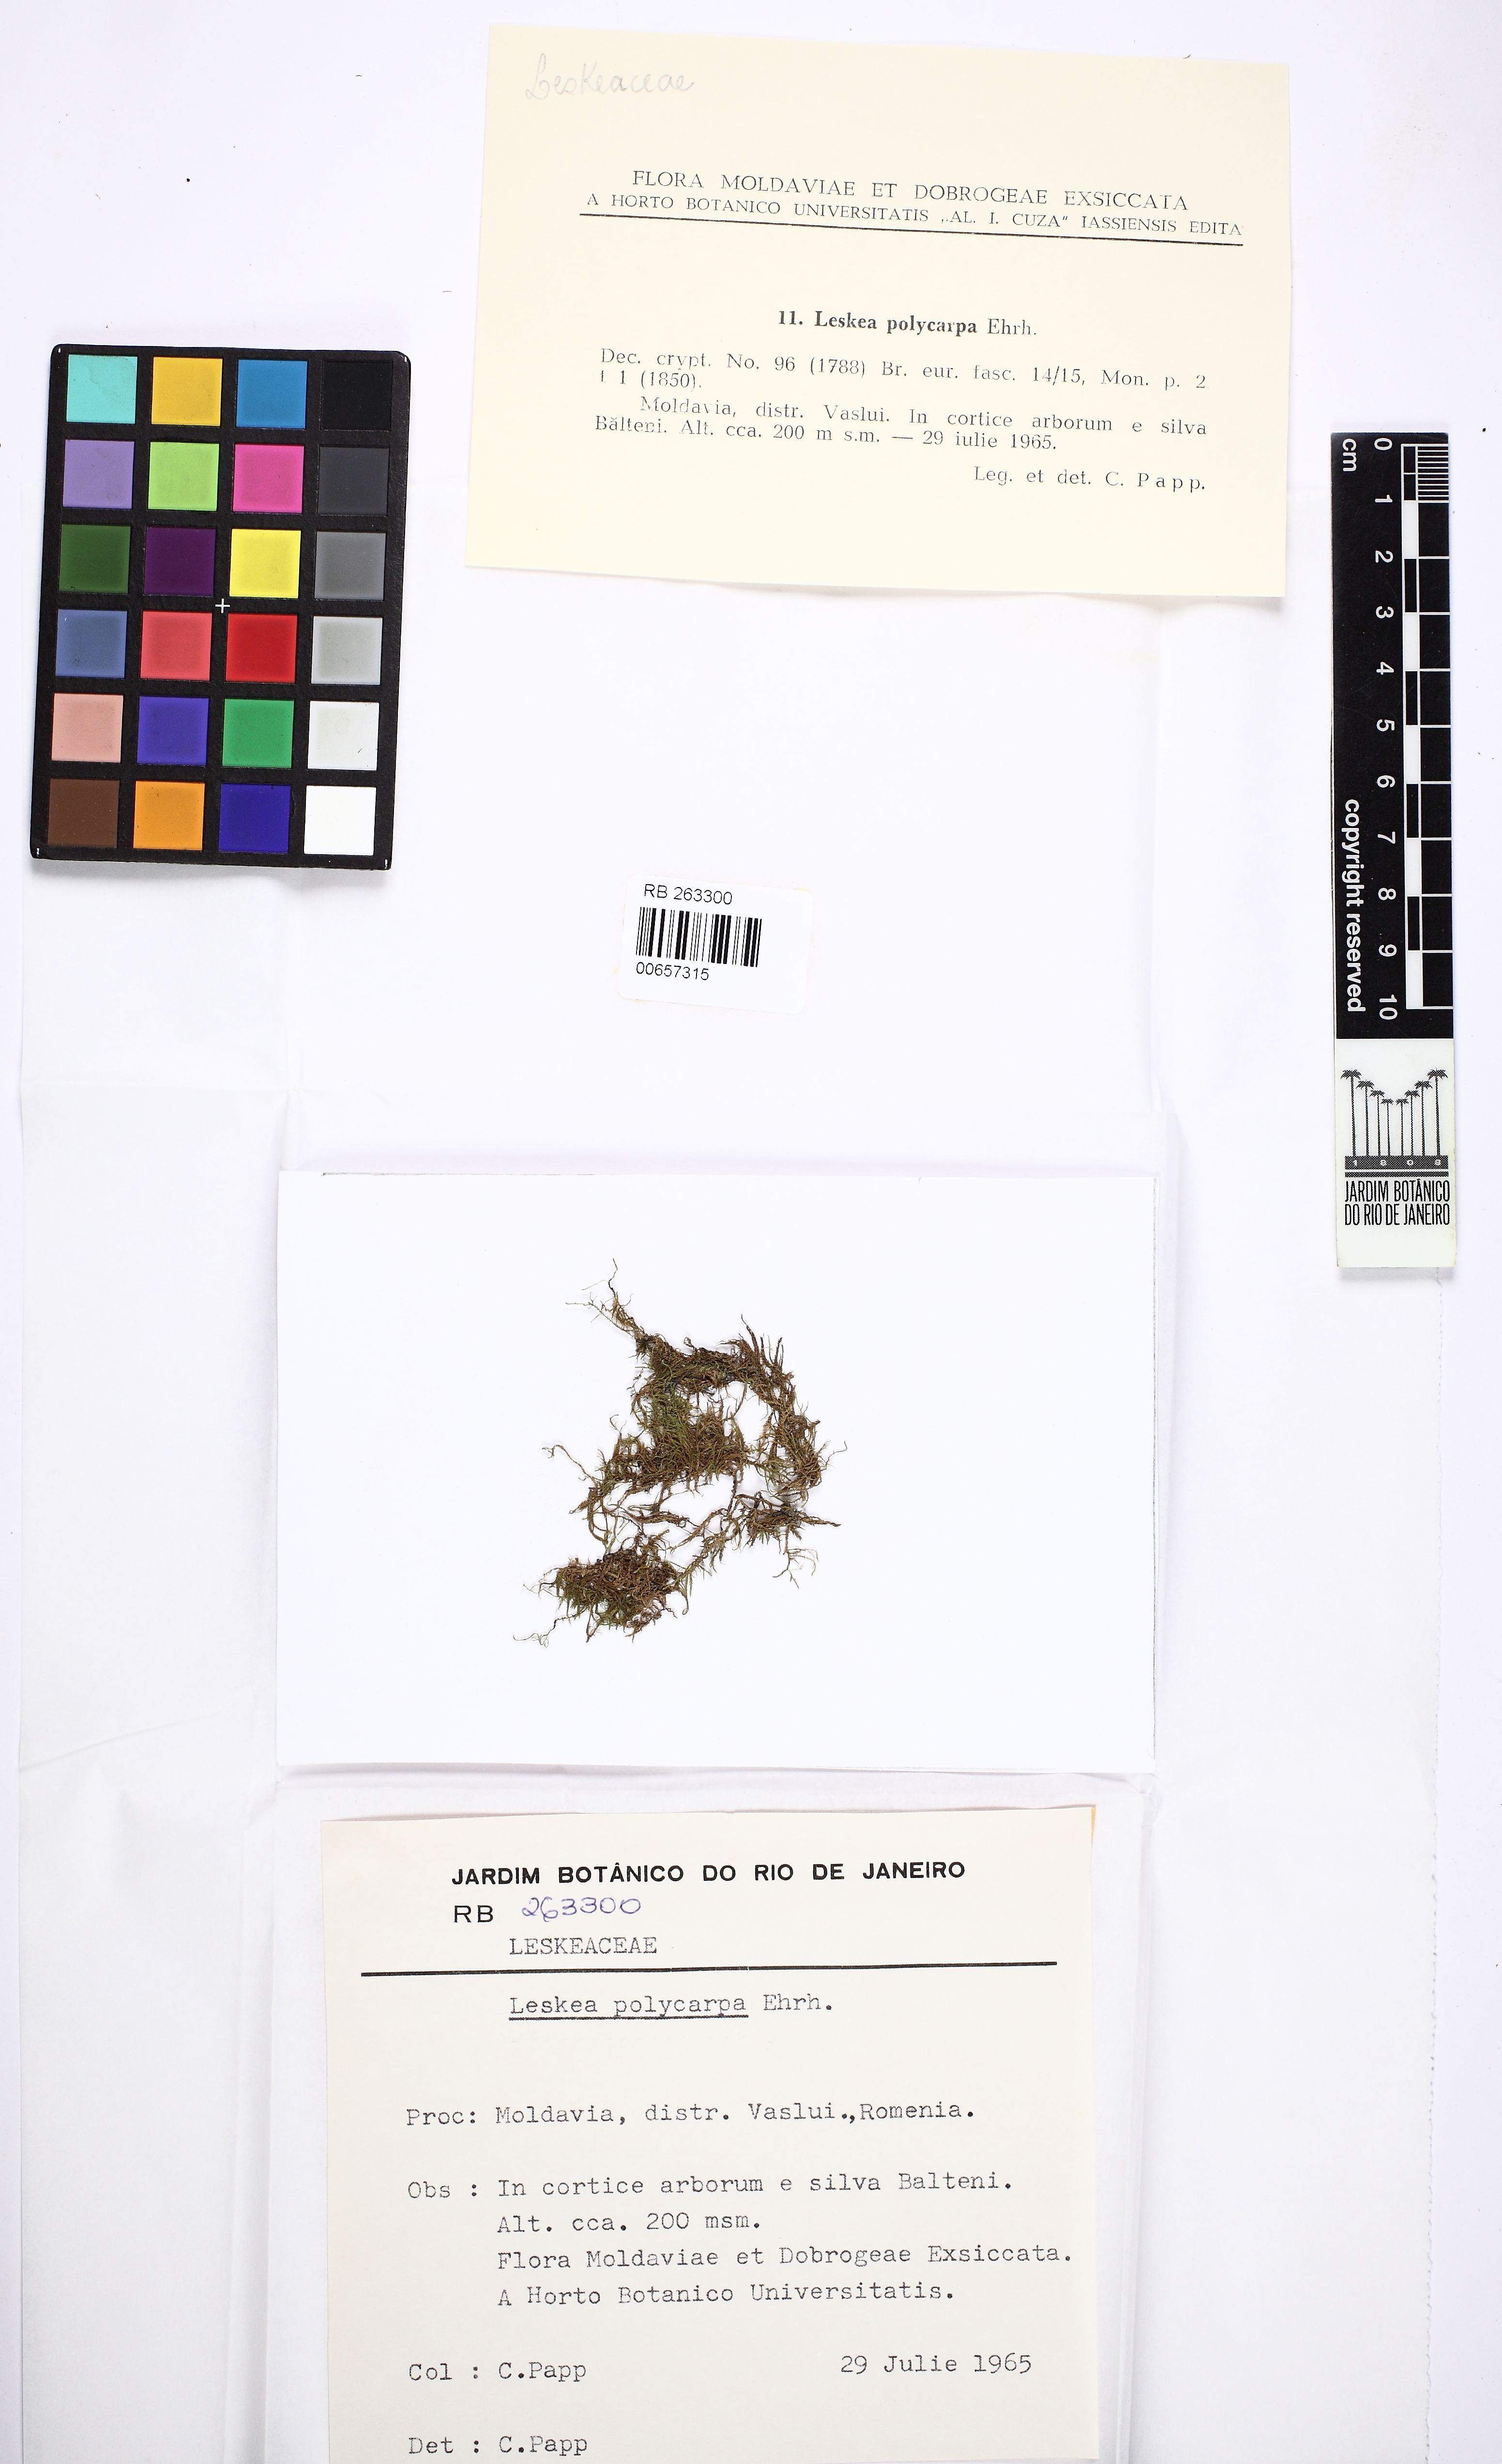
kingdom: Plantae
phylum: Bryophyta
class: Bryopsida
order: Hypnales
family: Leskeaceae
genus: Leskea
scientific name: Leskea polycarpa
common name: Many-fruited leske's moss
